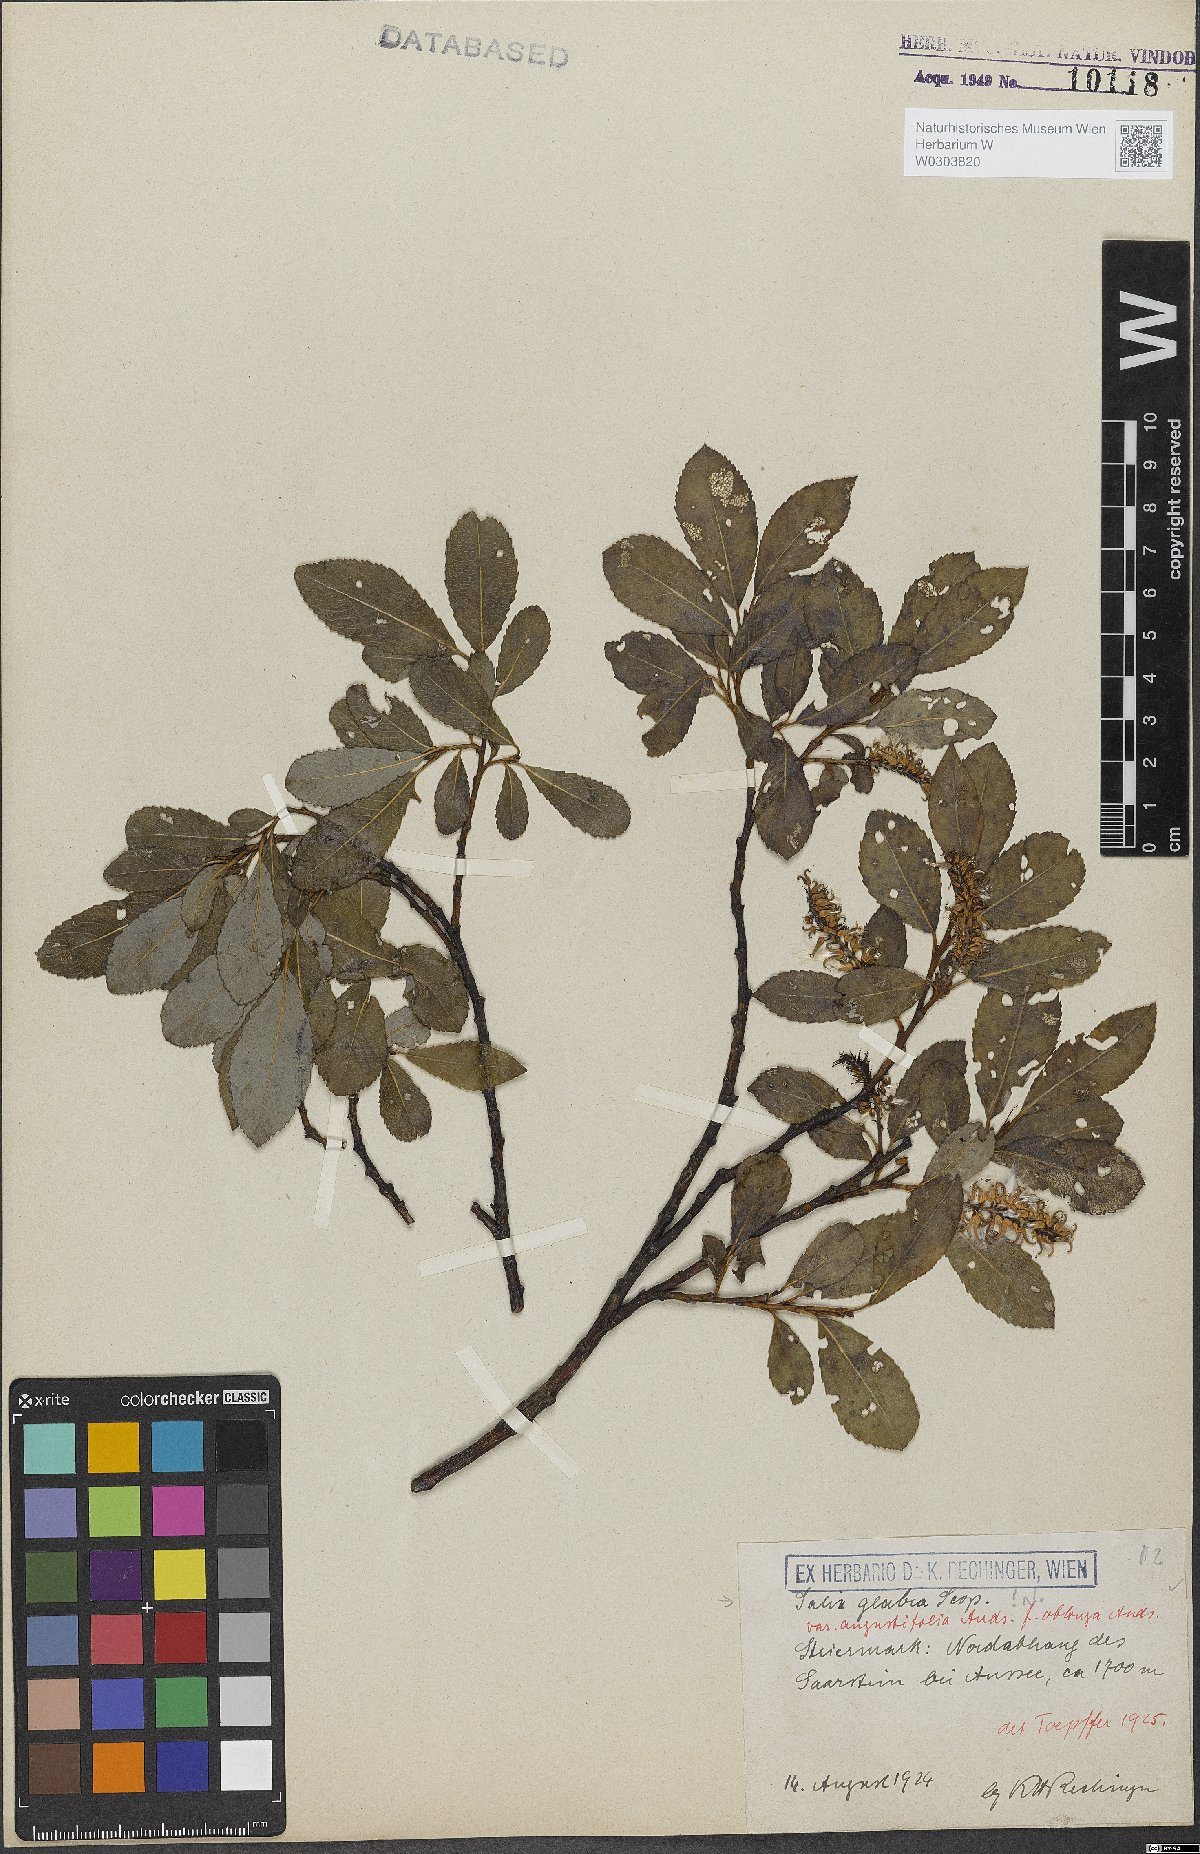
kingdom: Plantae
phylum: Tracheophyta
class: Magnoliopsida
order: Malpighiales
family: Salicaceae
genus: Salix
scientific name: Salix glabra
